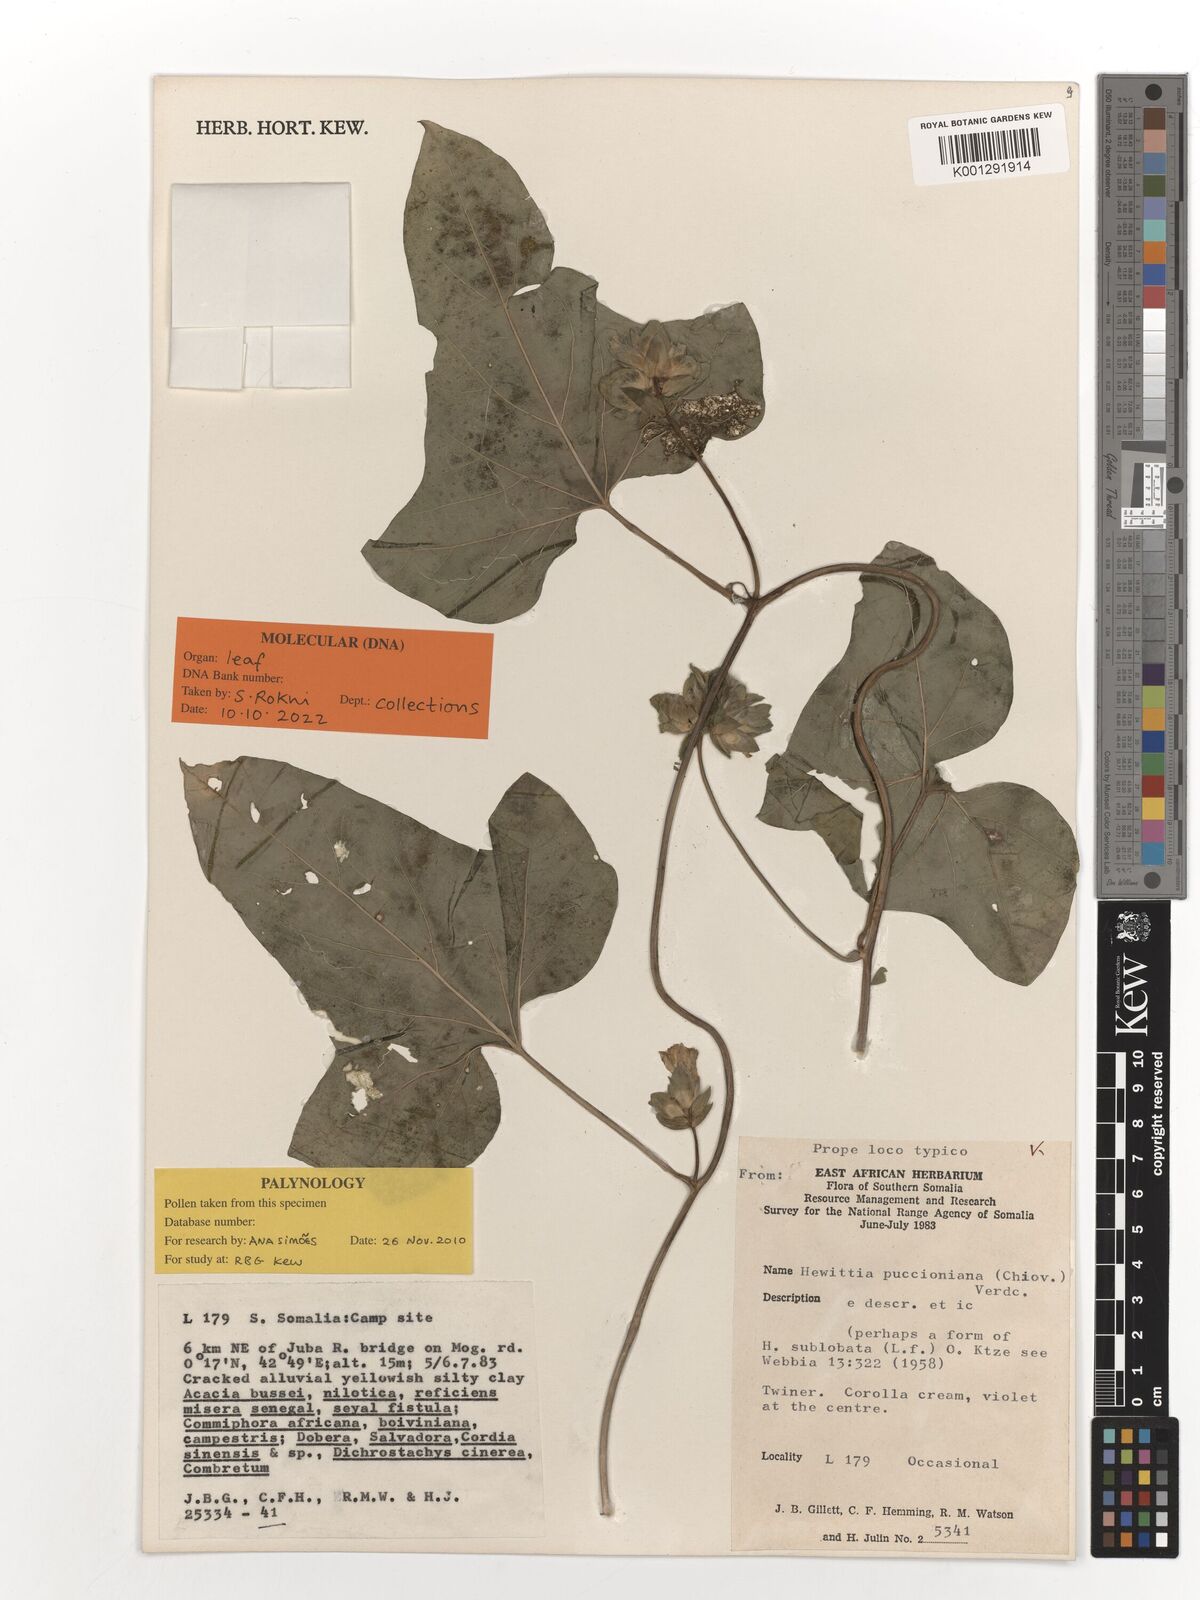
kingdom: Plantae
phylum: Tracheophyta
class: Magnoliopsida
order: Solanales
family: Convolvulaceae
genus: Hewittia
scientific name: Hewittia malabarica
